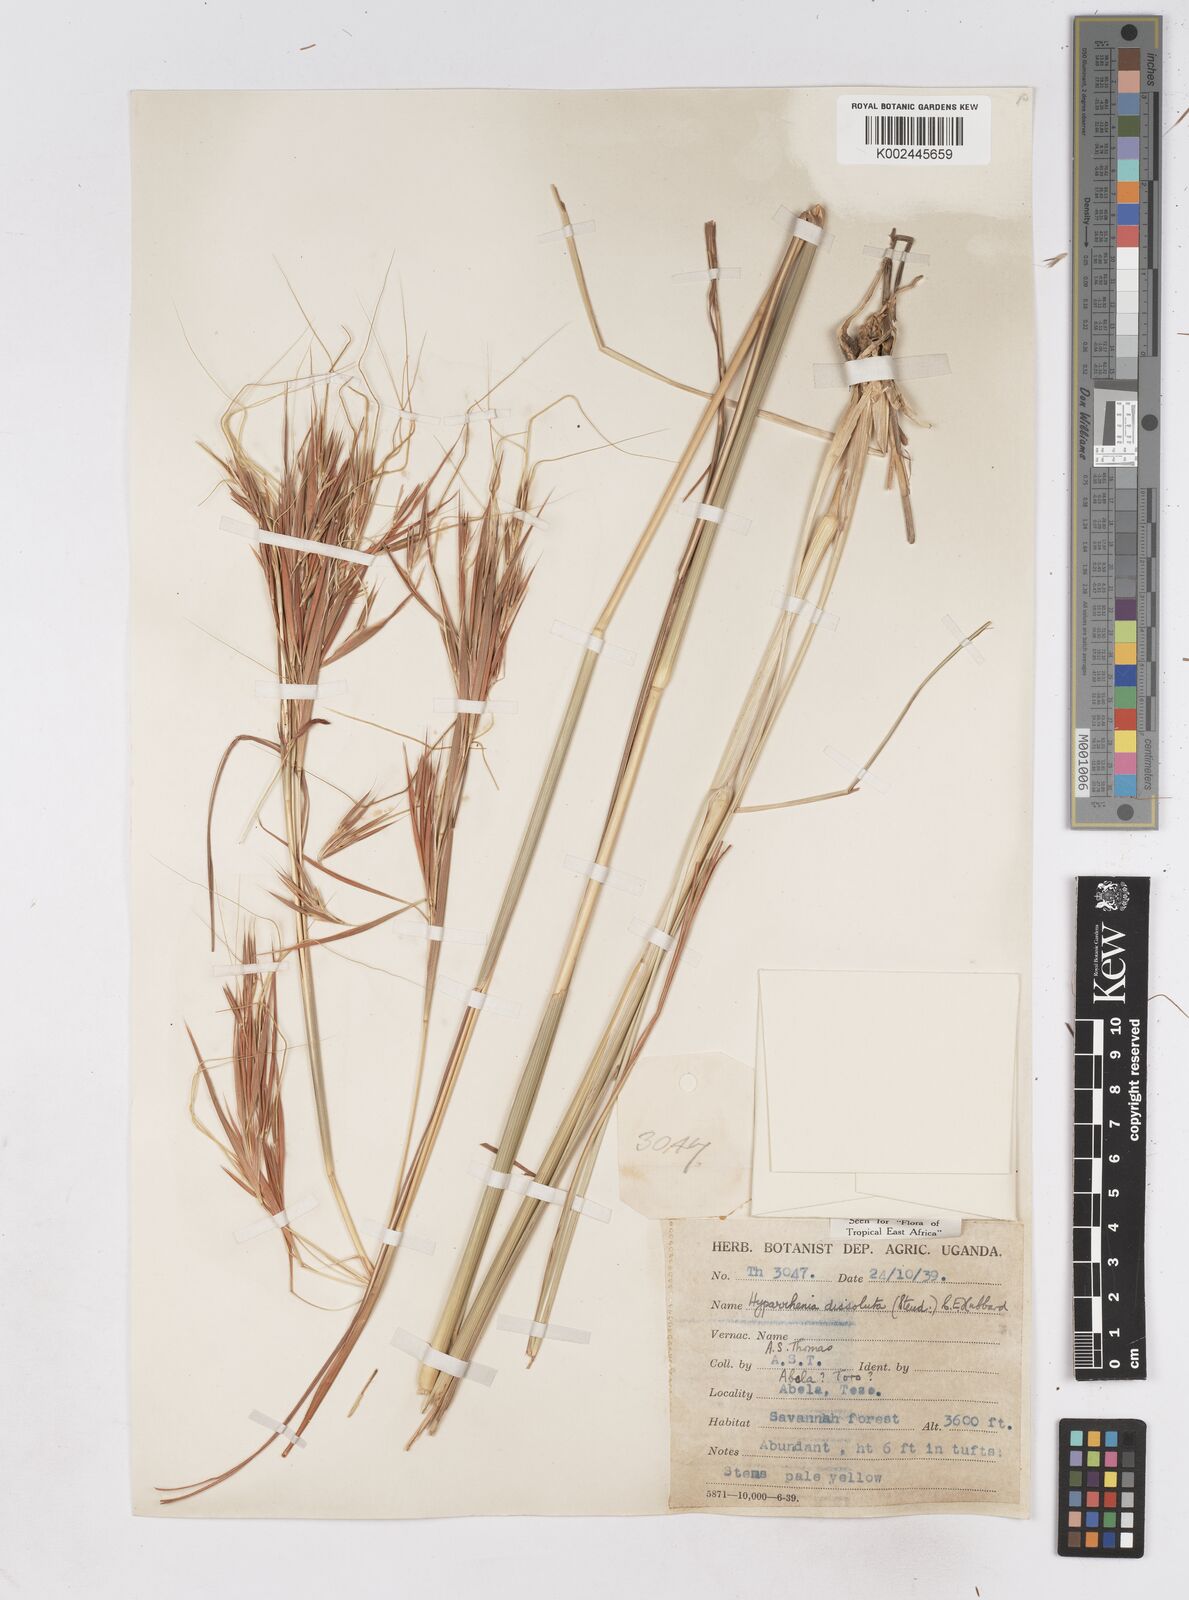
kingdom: Plantae
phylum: Tracheophyta
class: Liliopsida
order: Poales
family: Poaceae
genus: Hyperthelia
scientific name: Hyperthelia dissoluta
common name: Yellow thatching grass
